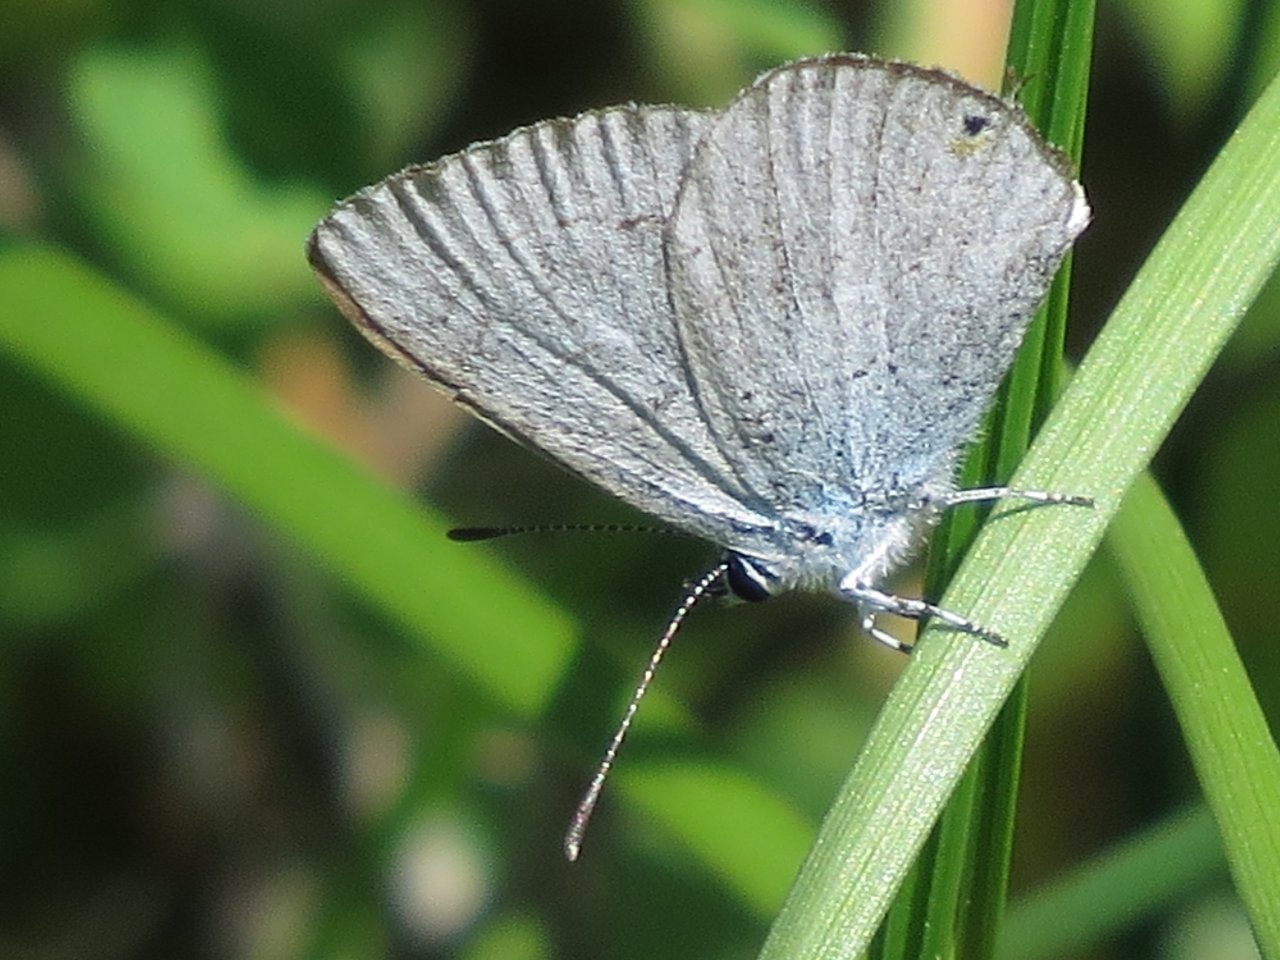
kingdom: Animalia
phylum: Arthropoda
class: Insecta
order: Lepidoptera
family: Lycaenidae
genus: Elkalyce
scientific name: Elkalyce amyntula
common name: Western Tailed-Blue
